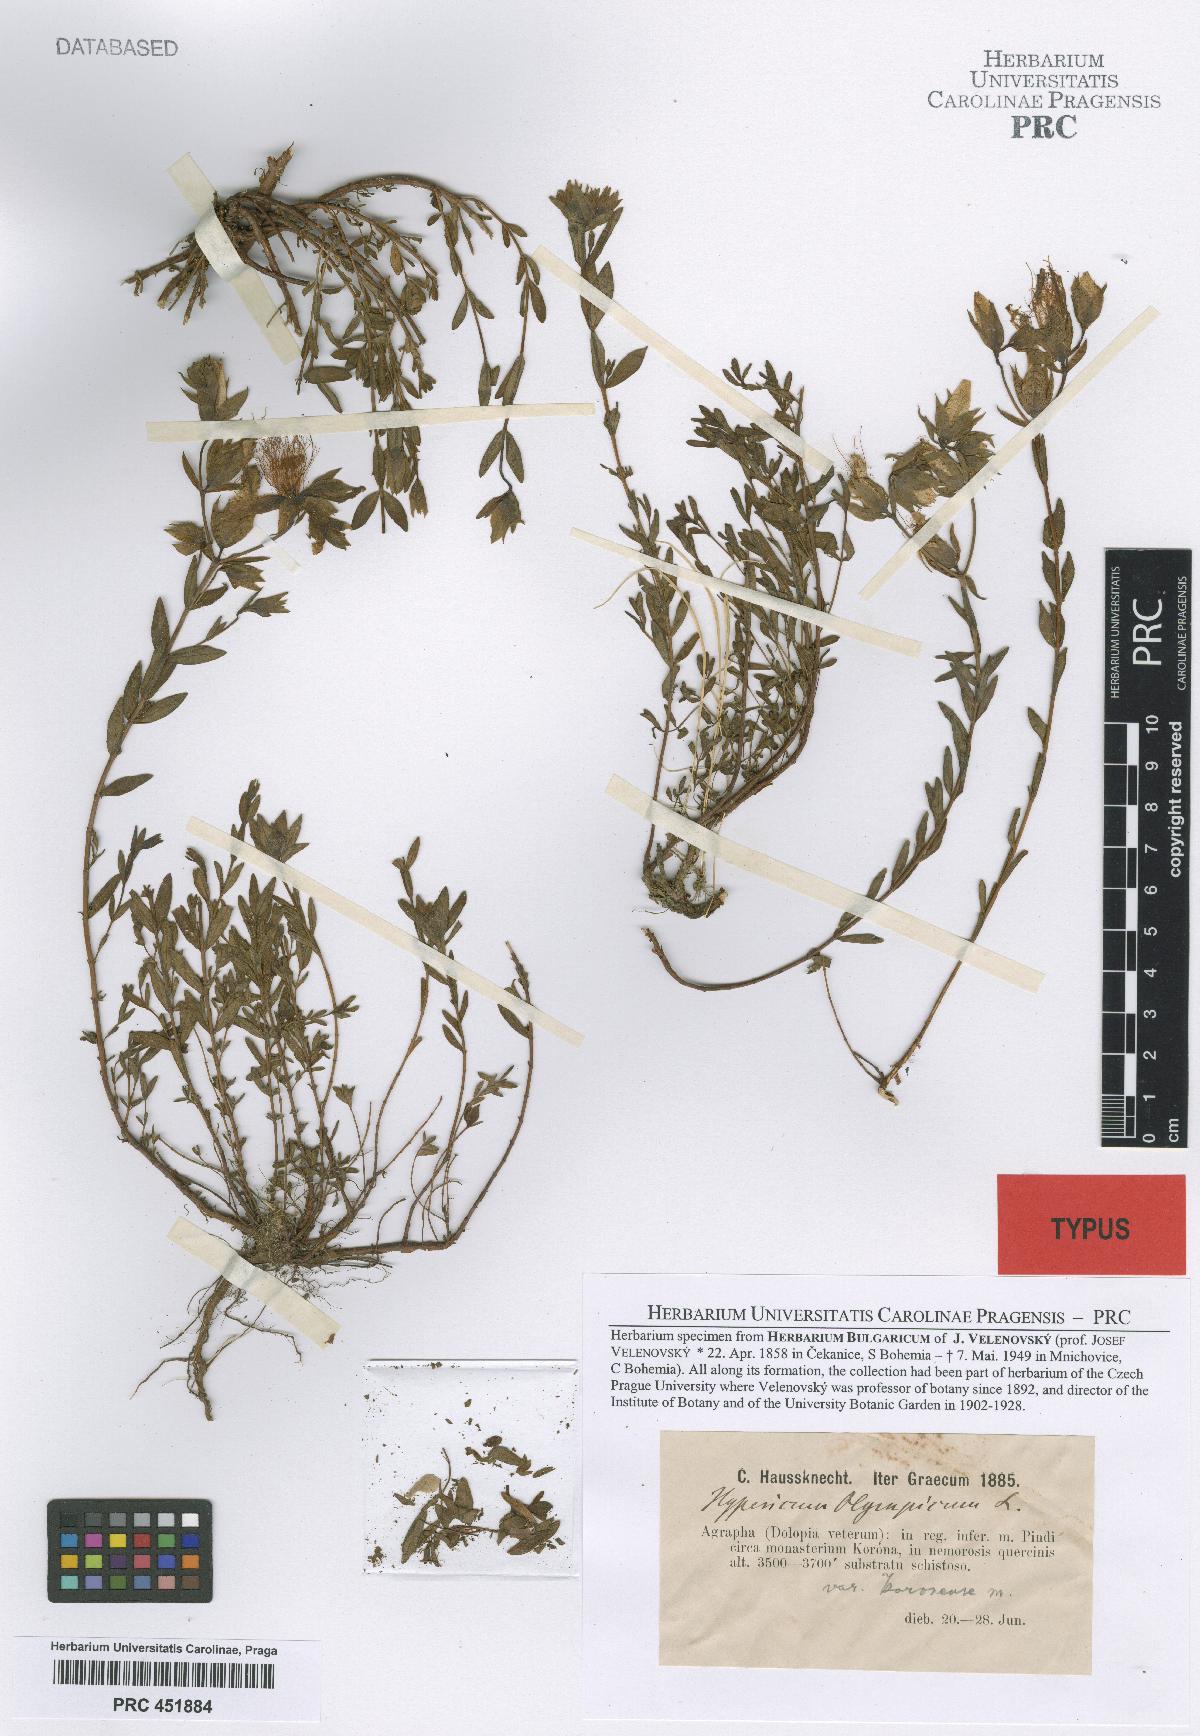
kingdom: Plantae
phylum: Tracheophyta
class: Magnoliopsida
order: Malpighiales
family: Hypericaceae
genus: Hypericum
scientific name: Hypericum olympicum
